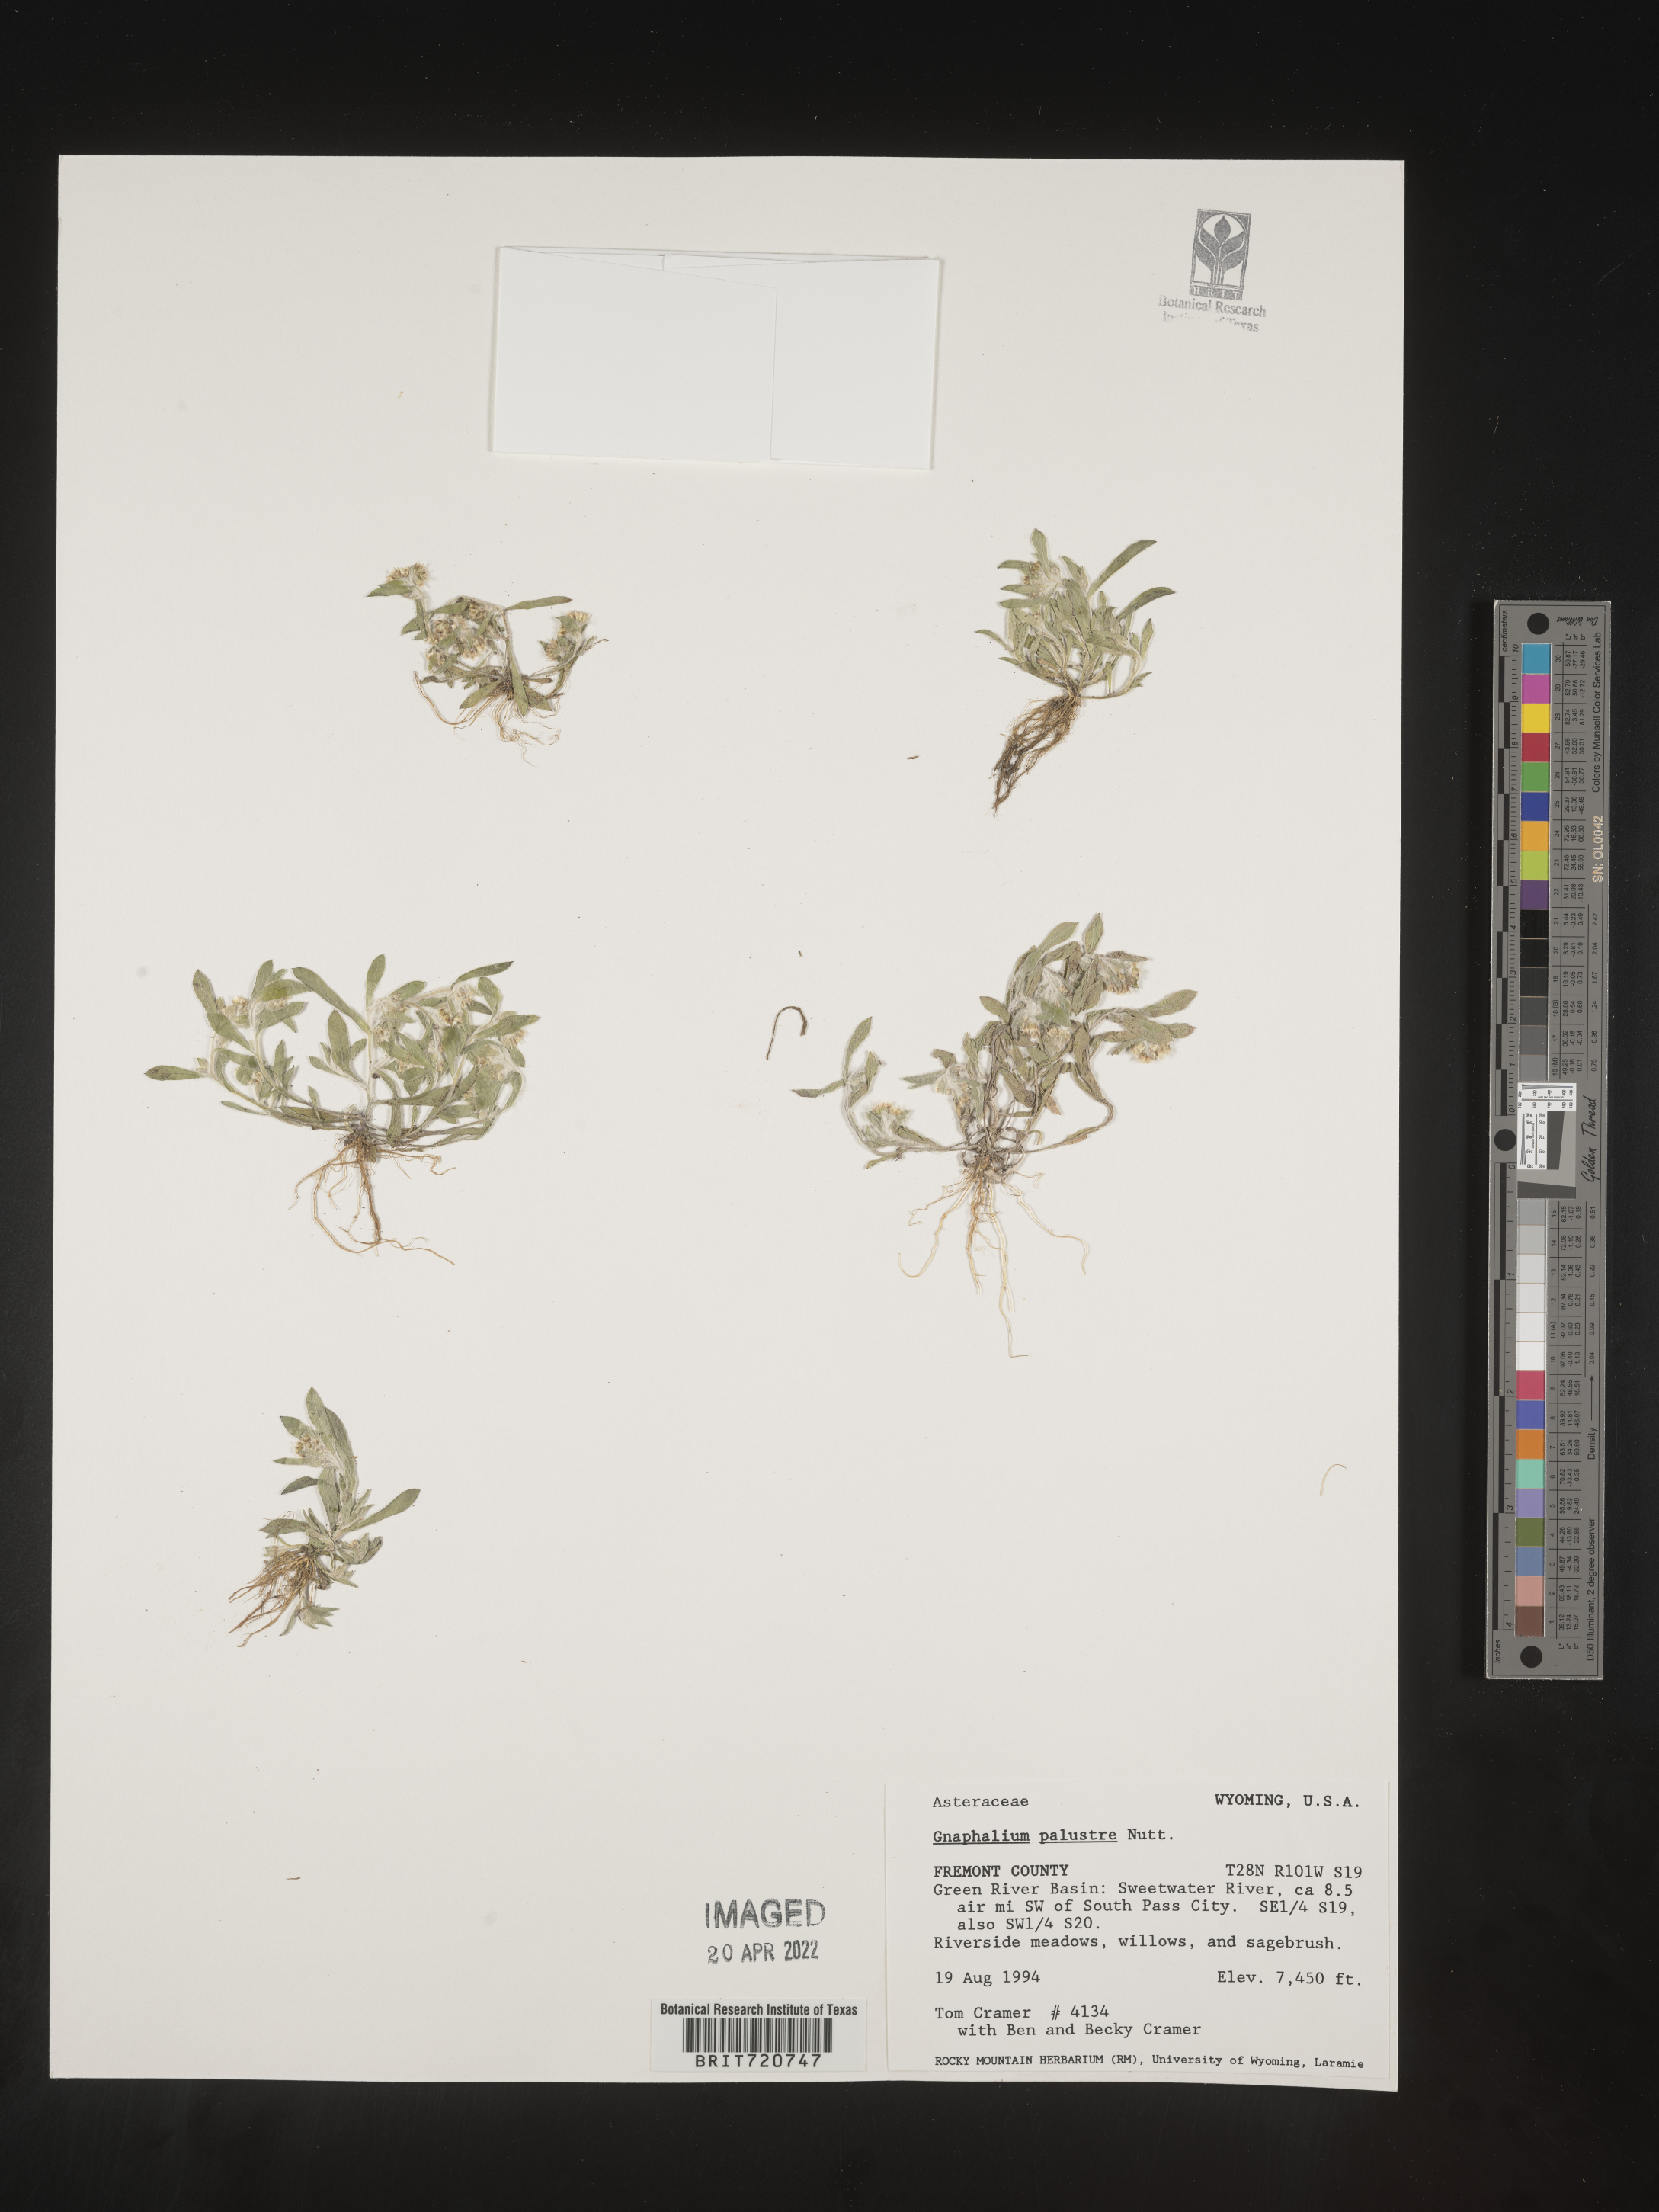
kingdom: Plantae
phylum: Tracheophyta
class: Magnoliopsida
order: Asterales
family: Asteraceae
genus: Gnaphalium
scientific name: Gnaphalium
